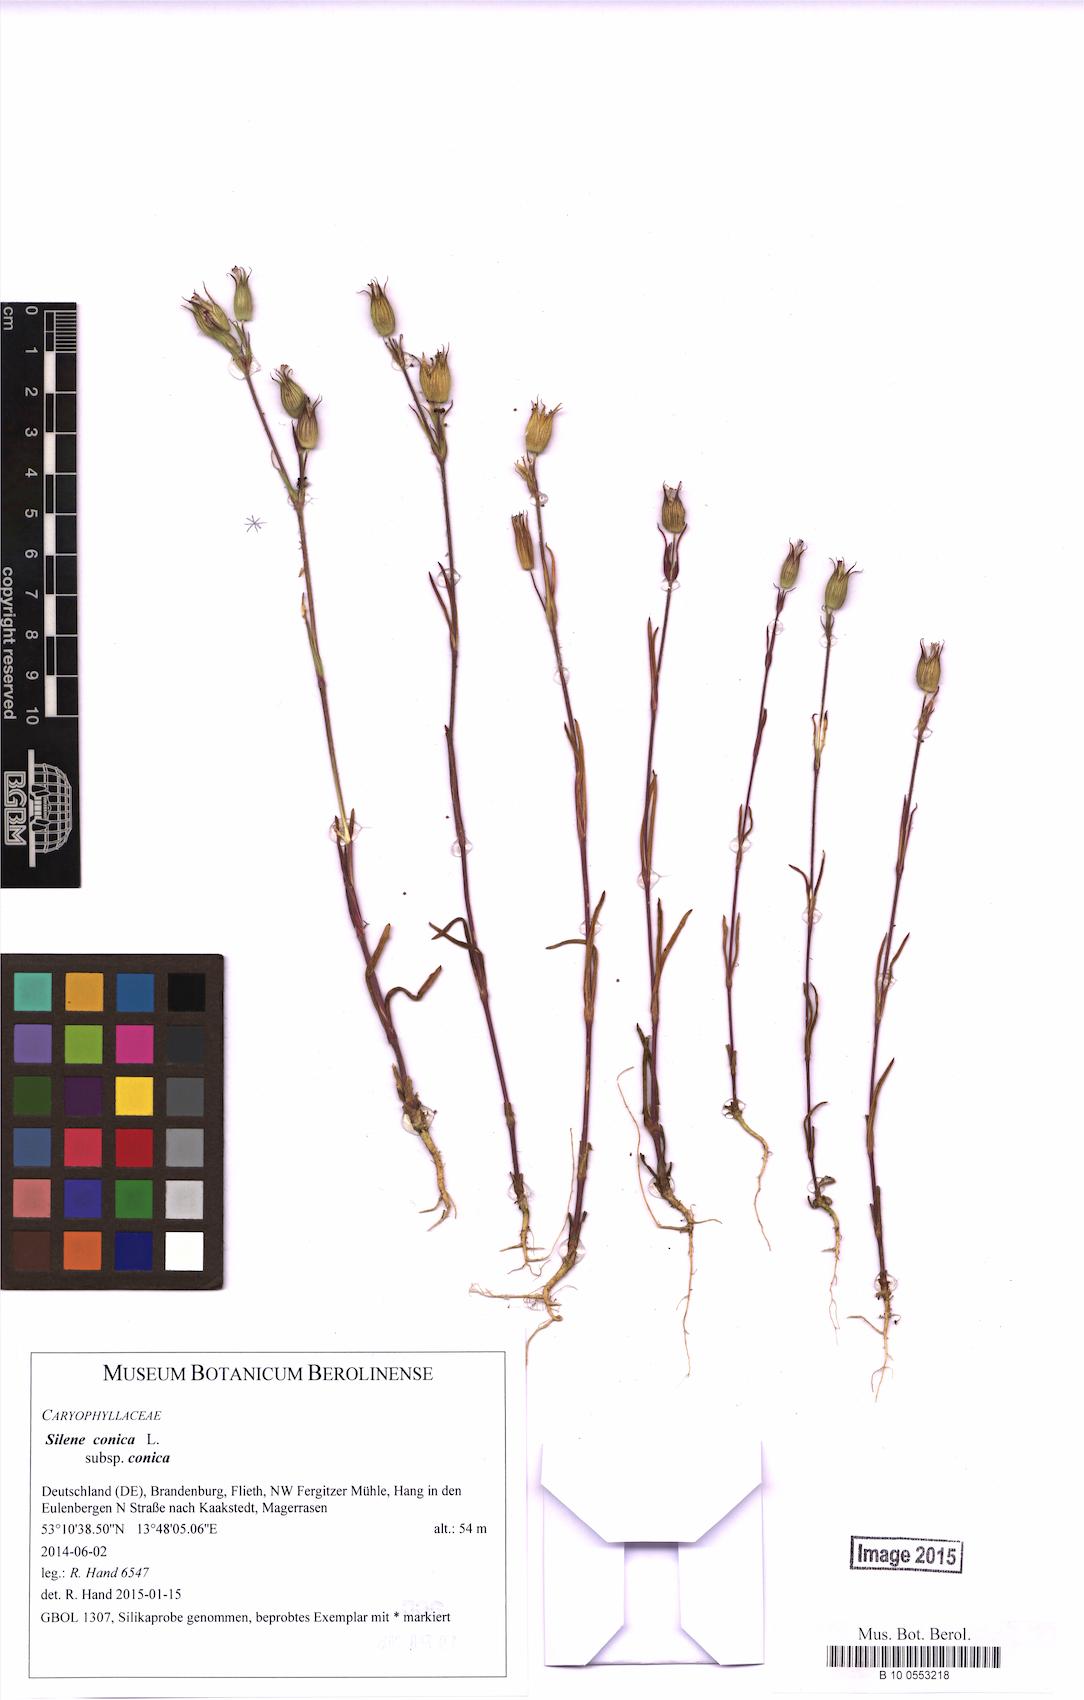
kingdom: Plantae
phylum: Tracheophyta
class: Magnoliopsida
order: Caryophyllales
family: Caryophyllaceae
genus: Silene
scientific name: Silene conica
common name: Sand catchfly
